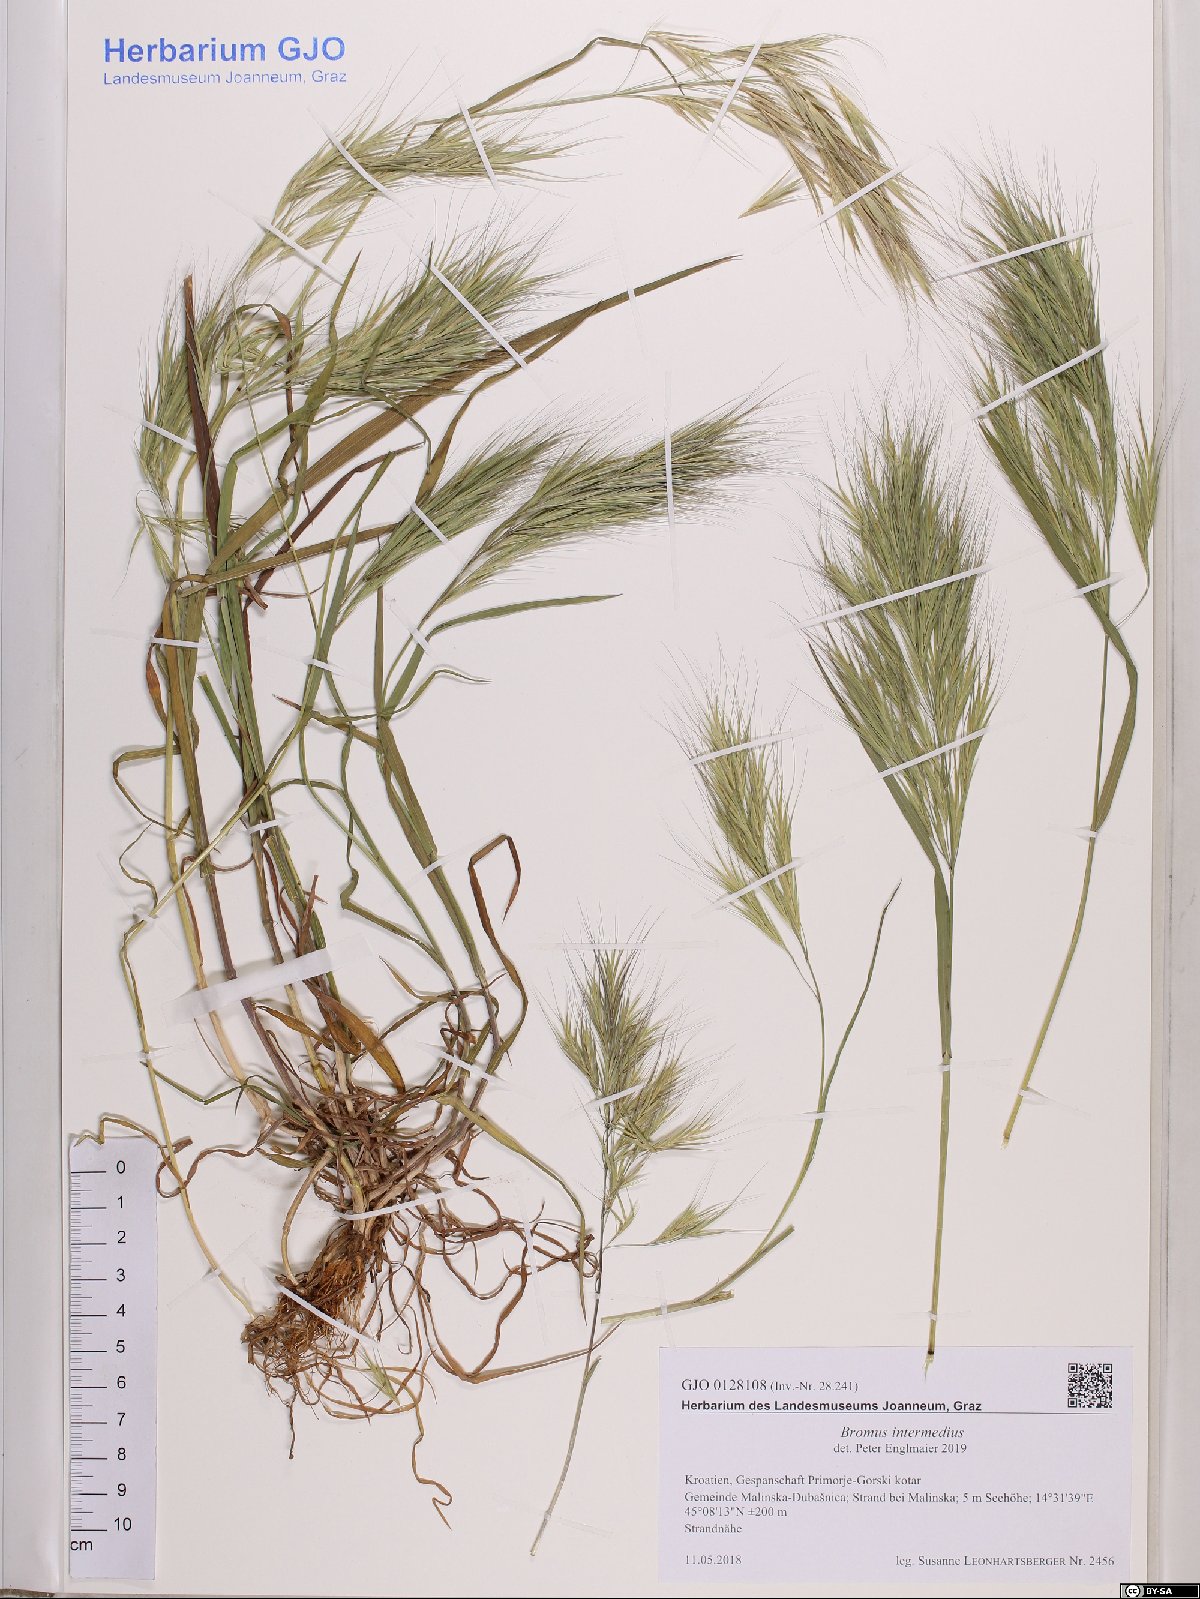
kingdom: Plantae
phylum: Tracheophyta
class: Liliopsida
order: Poales
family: Poaceae
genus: Bromus
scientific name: Bromus intermedius
